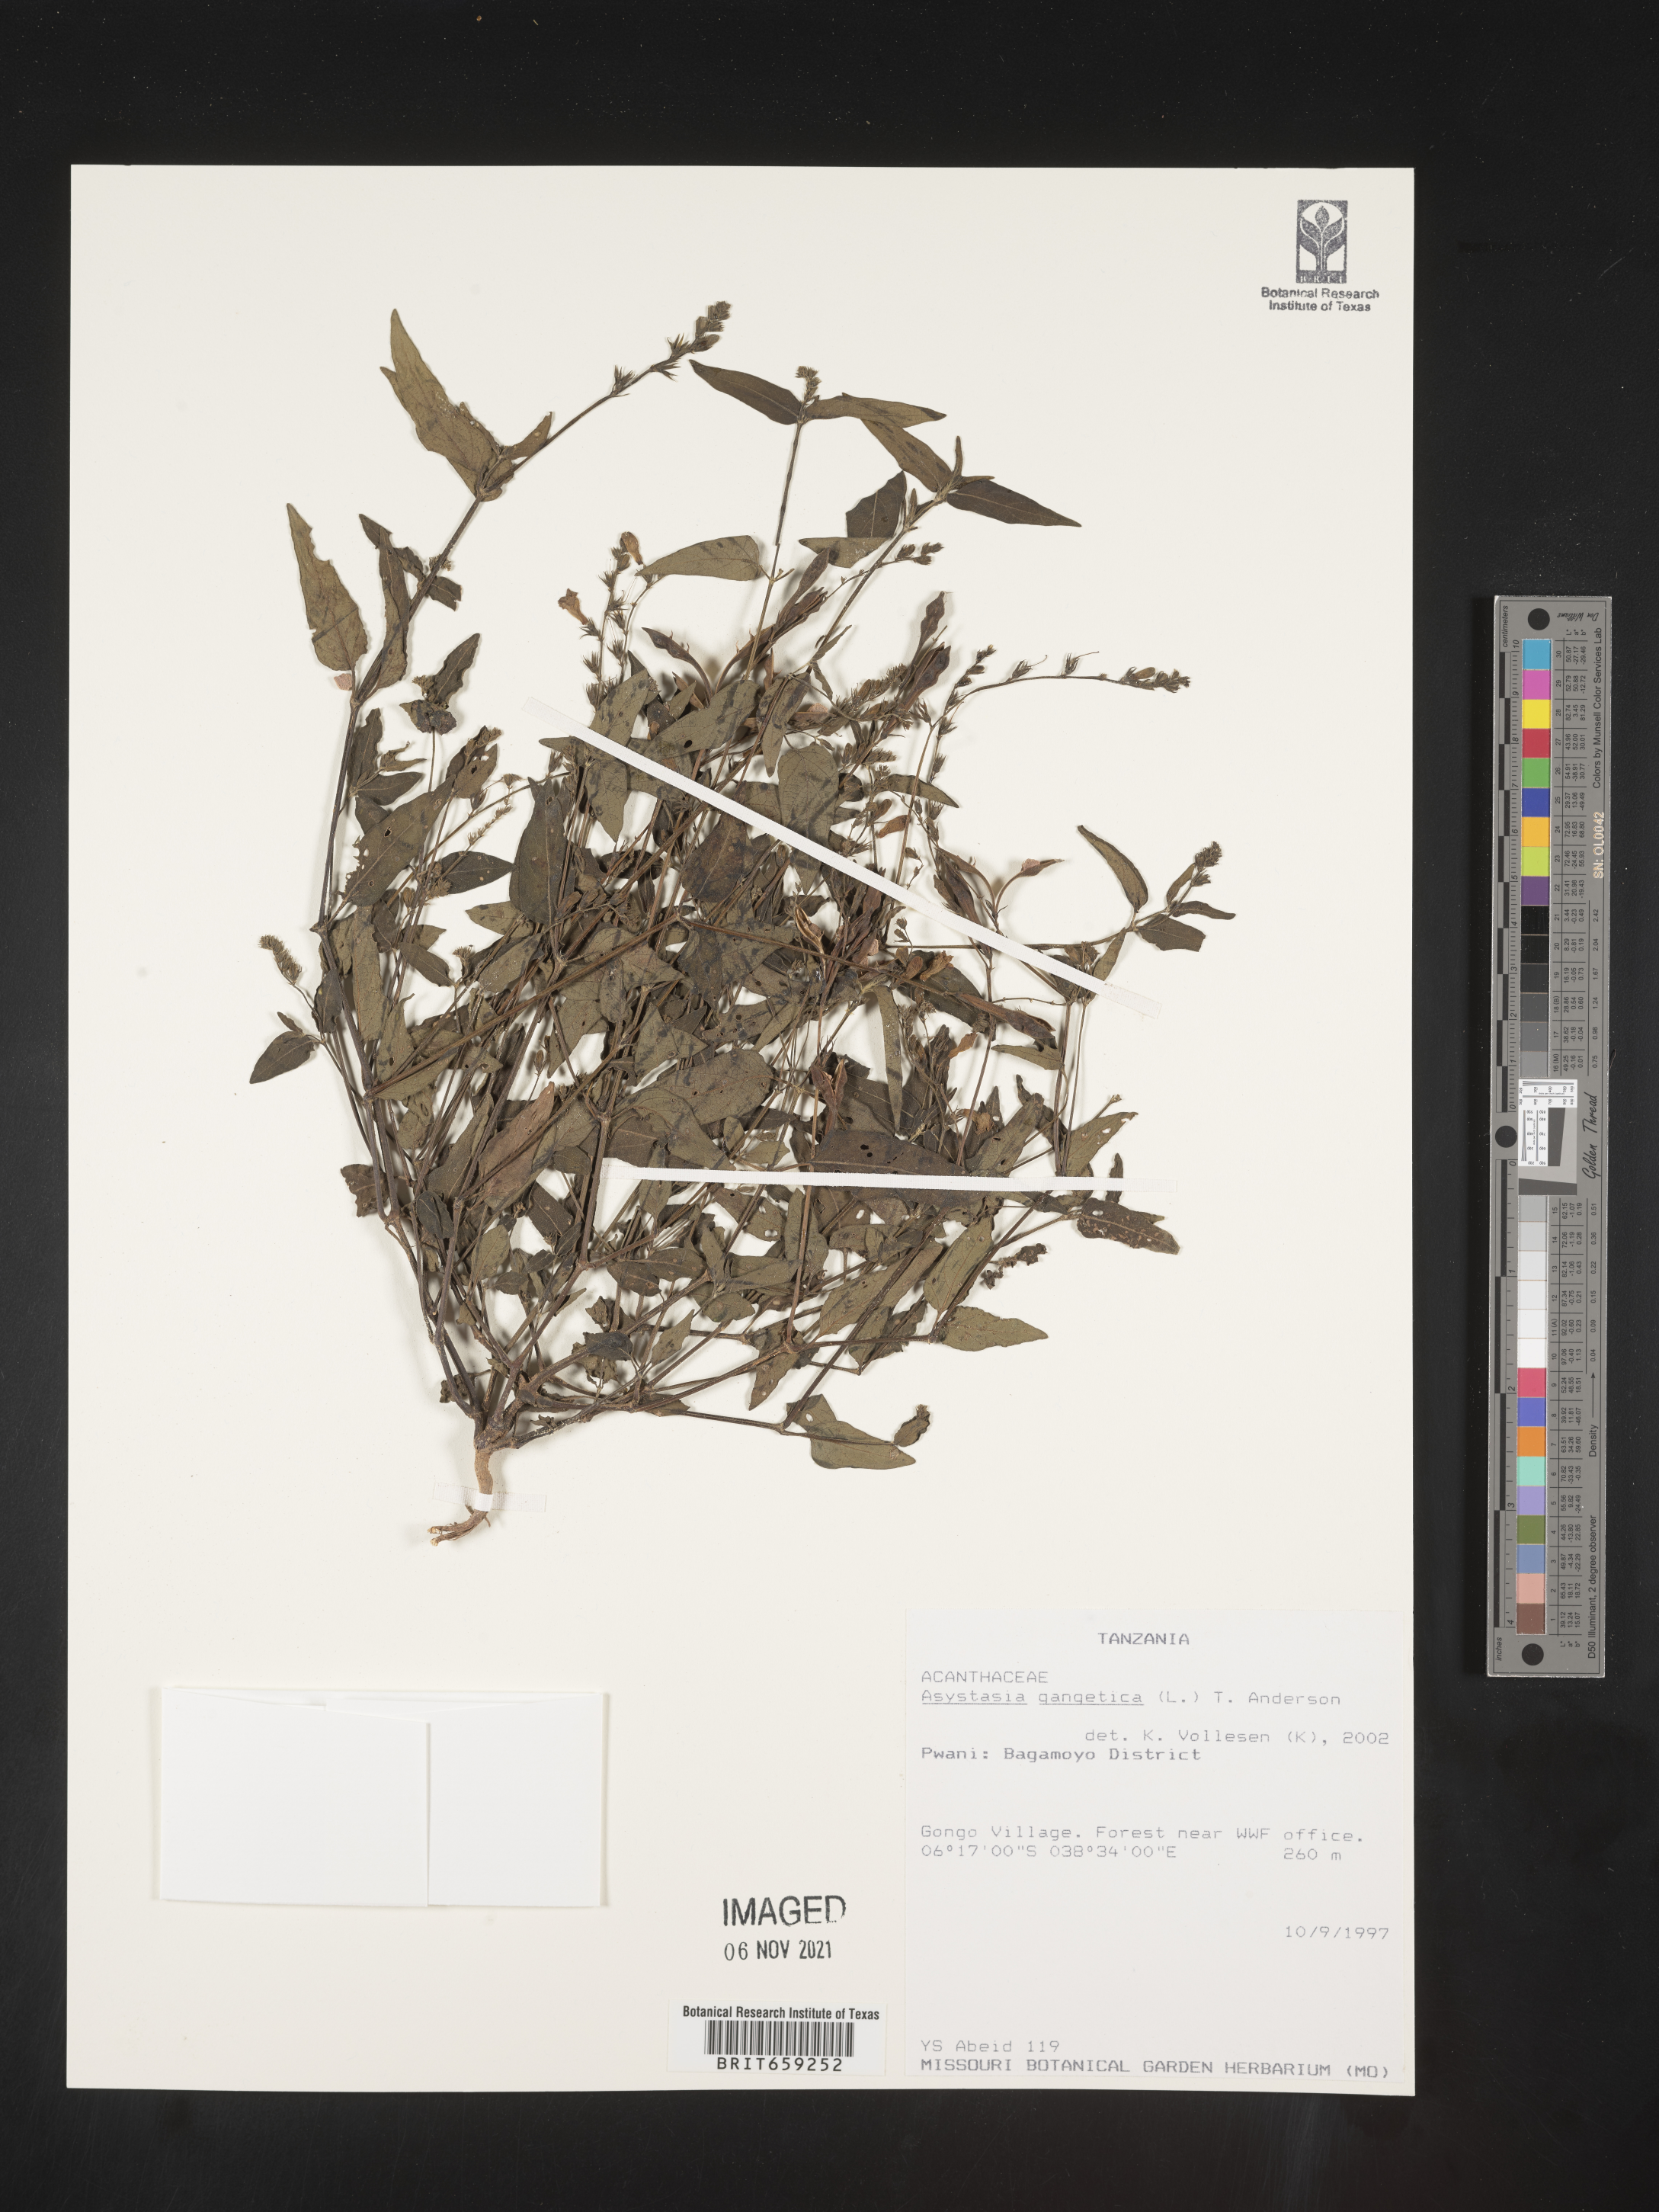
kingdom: Plantae
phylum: Tracheophyta
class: Magnoliopsida
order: Lamiales
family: Acanthaceae
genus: Asystasia
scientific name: Asystasia gangetica
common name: Chinese violet
